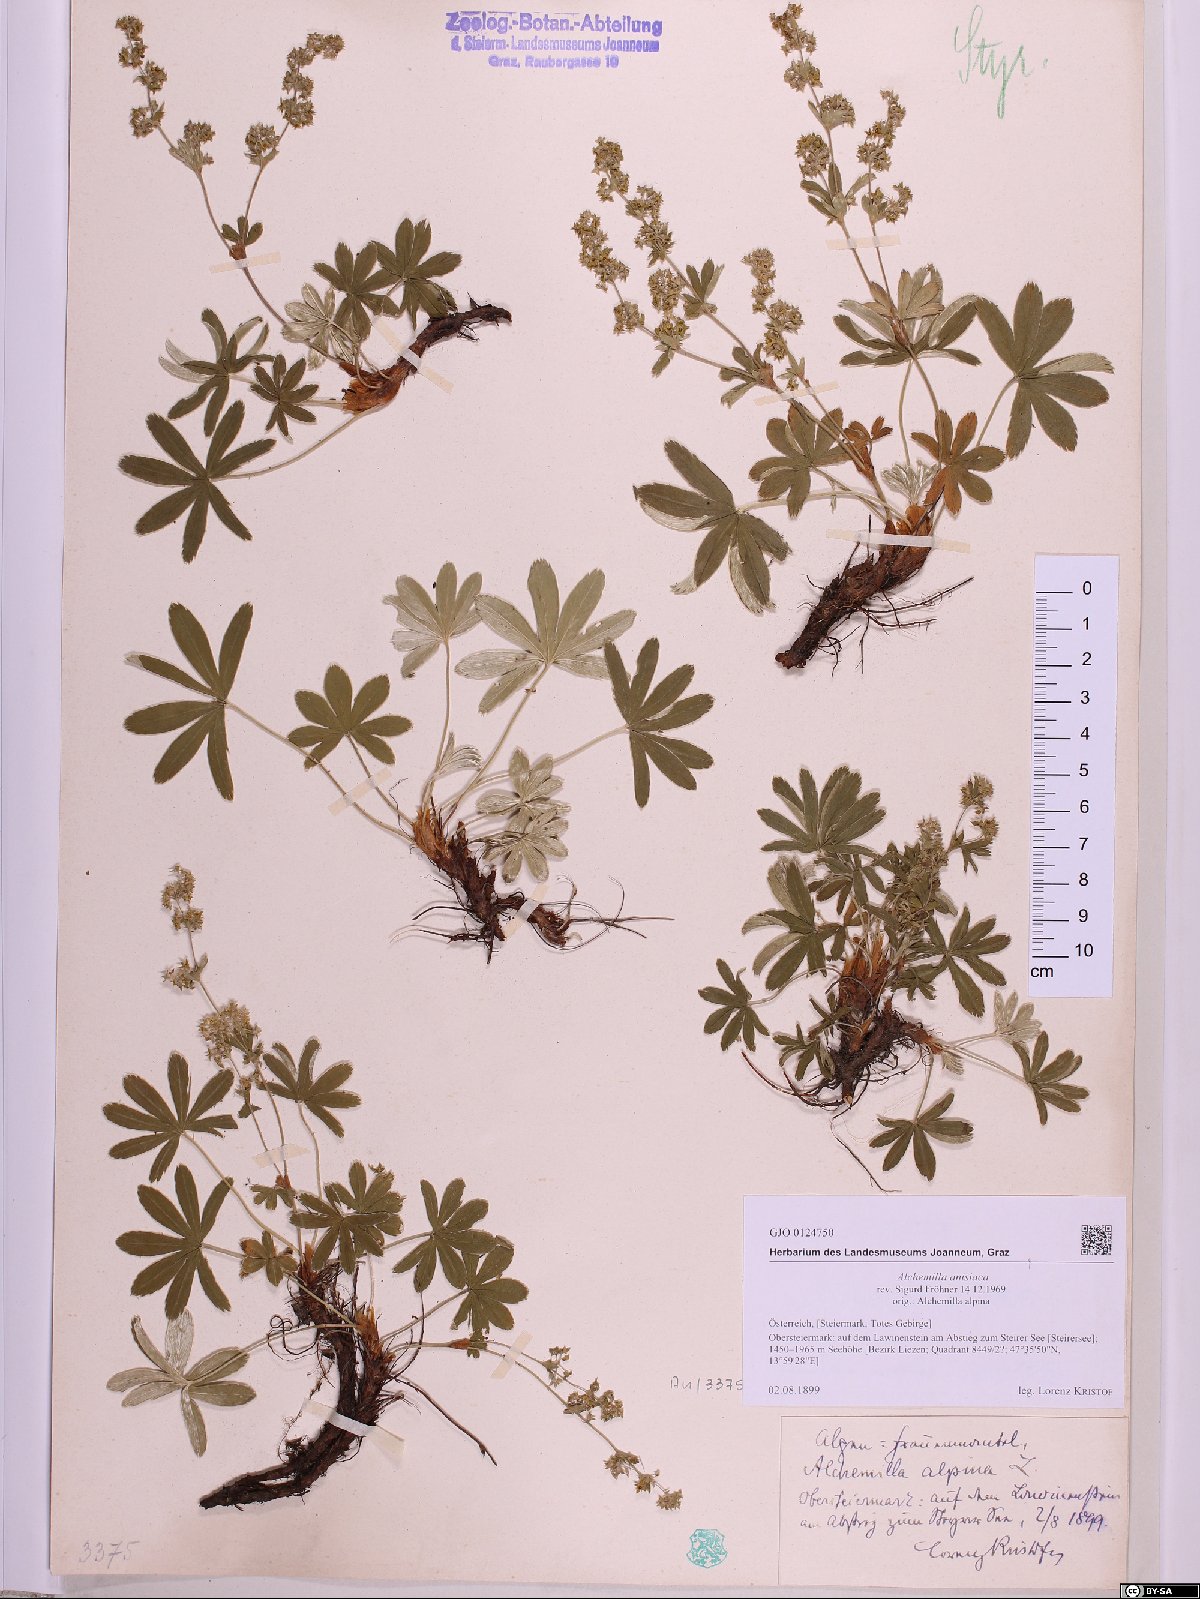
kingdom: Plantae
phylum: Tracheophyta
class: Magnoliopsida
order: Rosales
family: Rosaceae
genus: Alchemilla
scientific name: Alchemilla anisiaca
